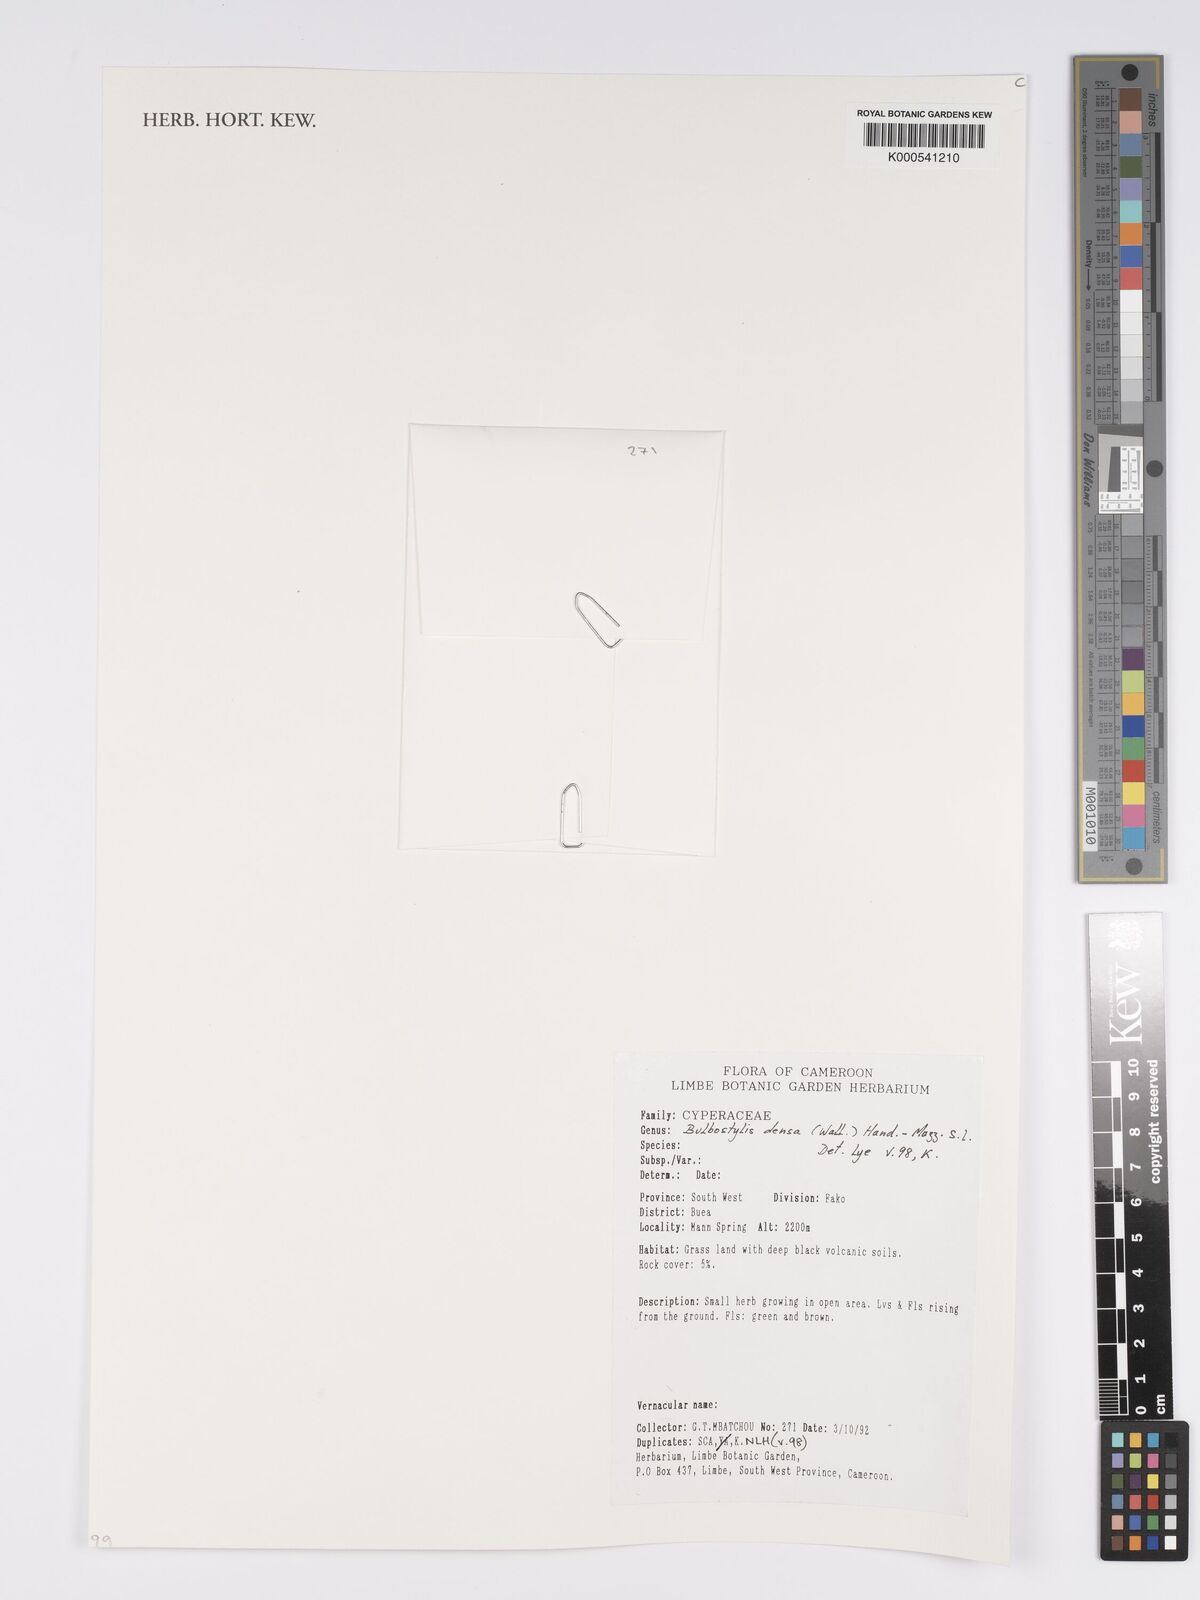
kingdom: Plantae
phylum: Tracheophyta
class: Liliopsida
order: Poales
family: Cyperaceae
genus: Bulbostylis
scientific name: Bulbostylis densa
